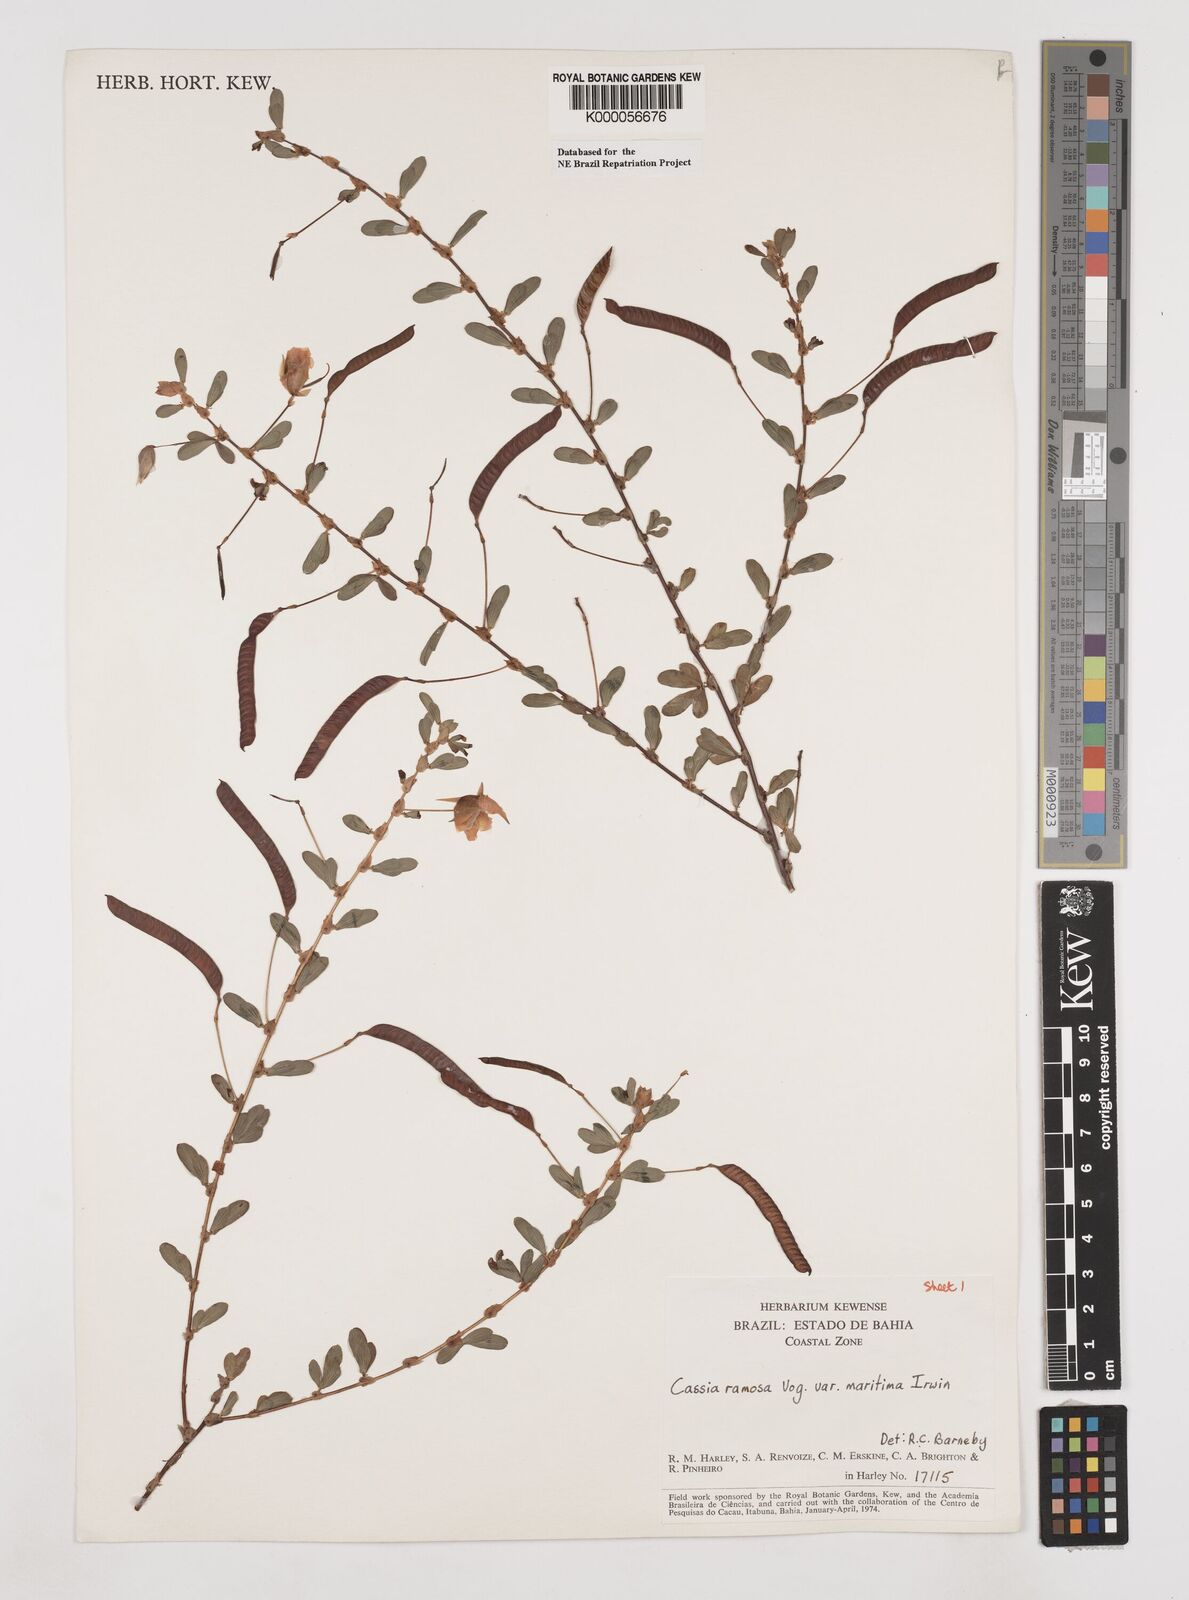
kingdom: Plantae
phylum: Tracheophyta
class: Magnoliopsida
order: Fabales
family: Fabaceae
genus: Chamaecrista
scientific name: Chamaecrista ramosa
